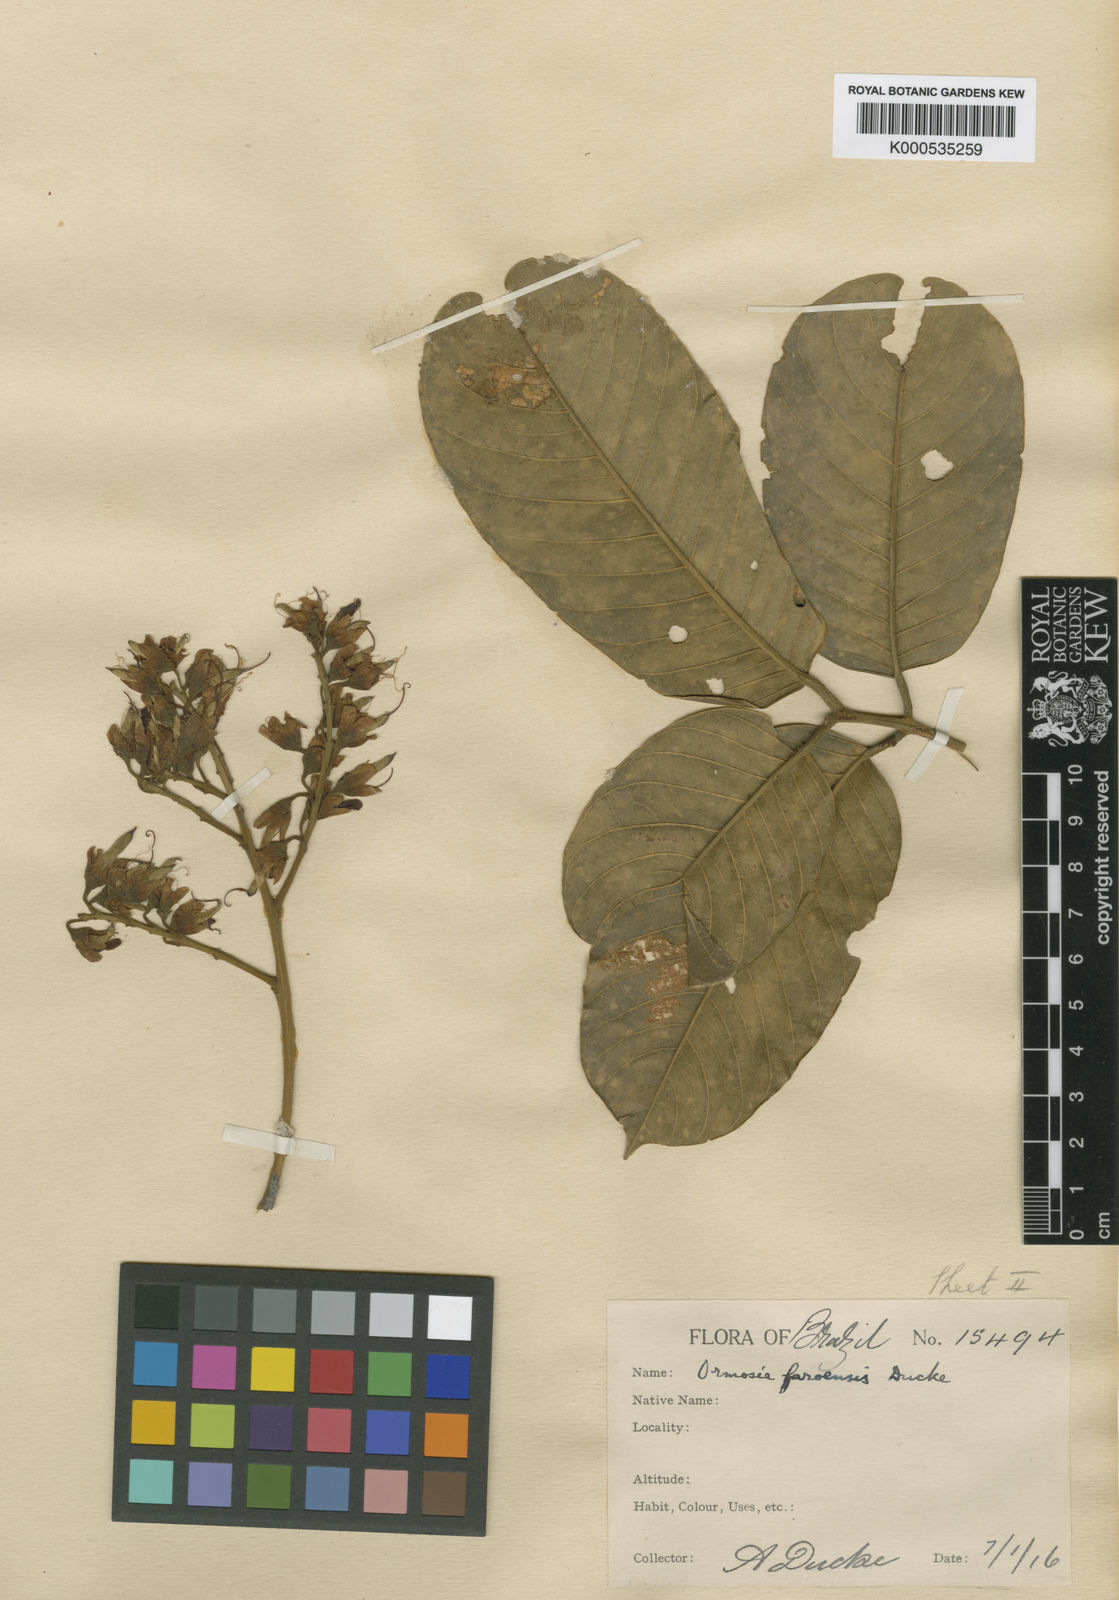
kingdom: Plantae
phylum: Tracheophyta
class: Magnoliopsida
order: Fabales
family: Fabaceae
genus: Ormosia
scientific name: Ormosia santaremnensis
